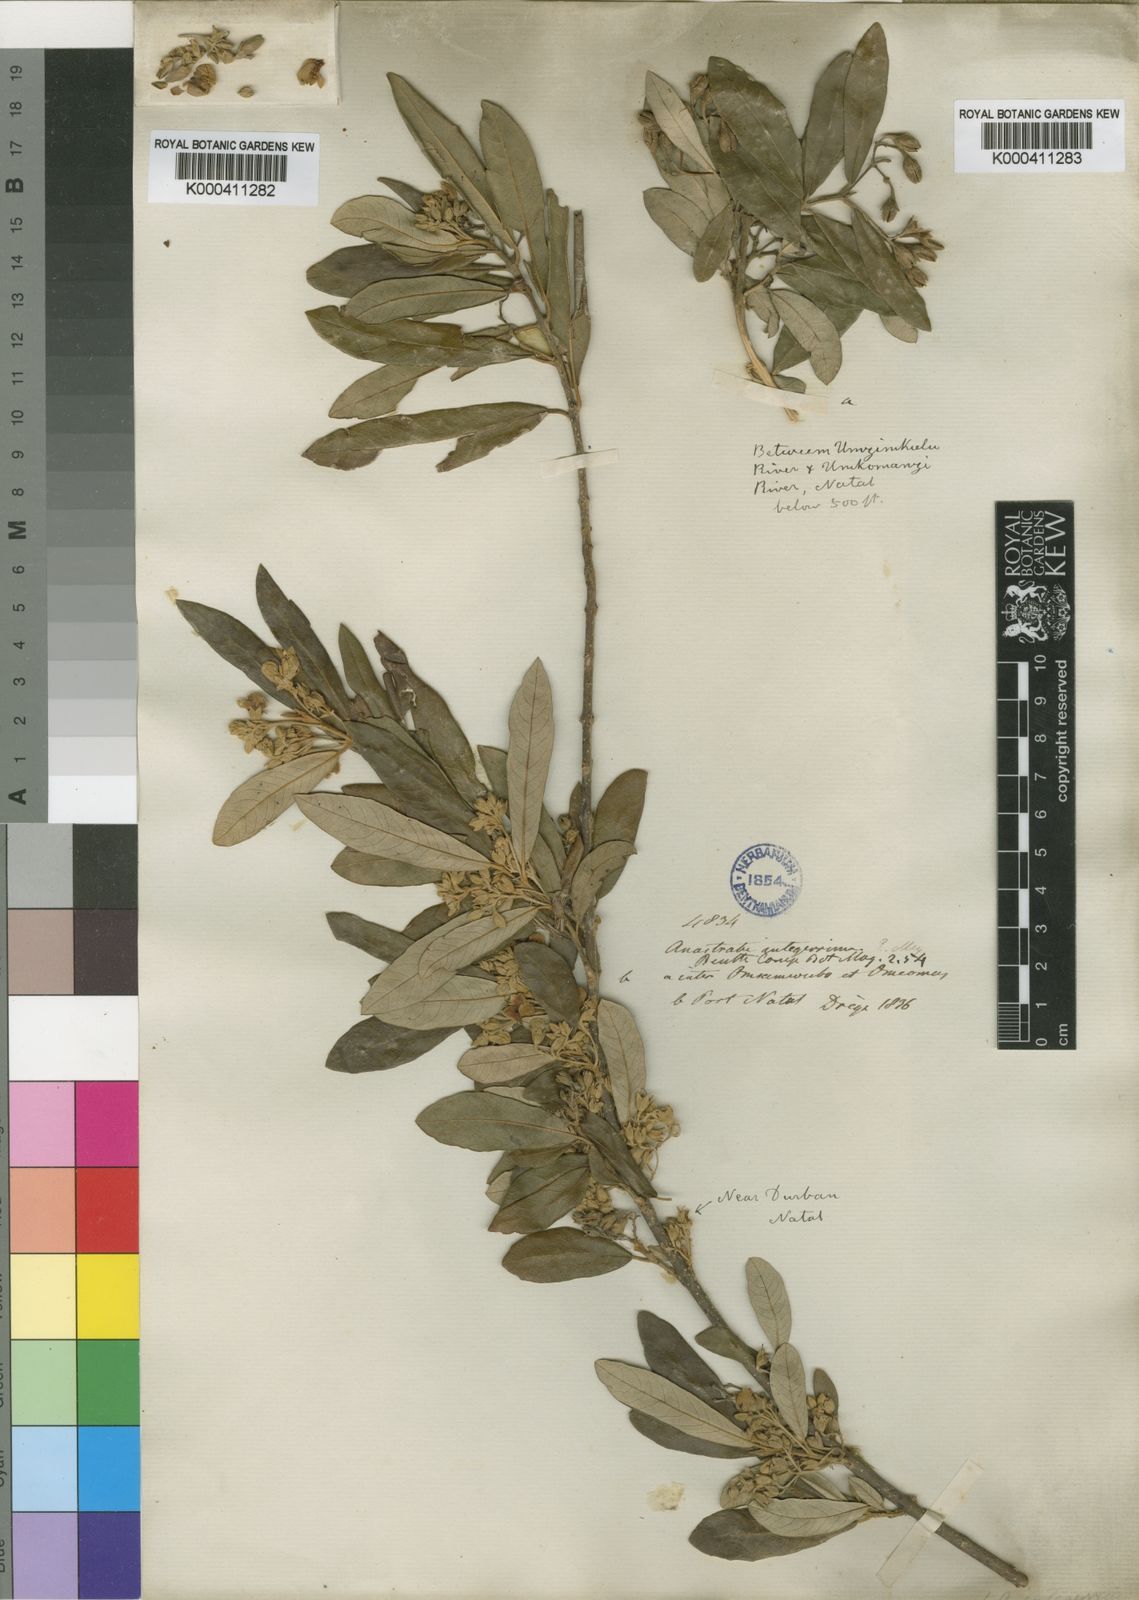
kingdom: Plantae
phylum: Tracheophyta
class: Magnoliopsida
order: Lamiales
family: Stilbaceae
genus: Anastrabe
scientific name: Anastrabe integerrima
